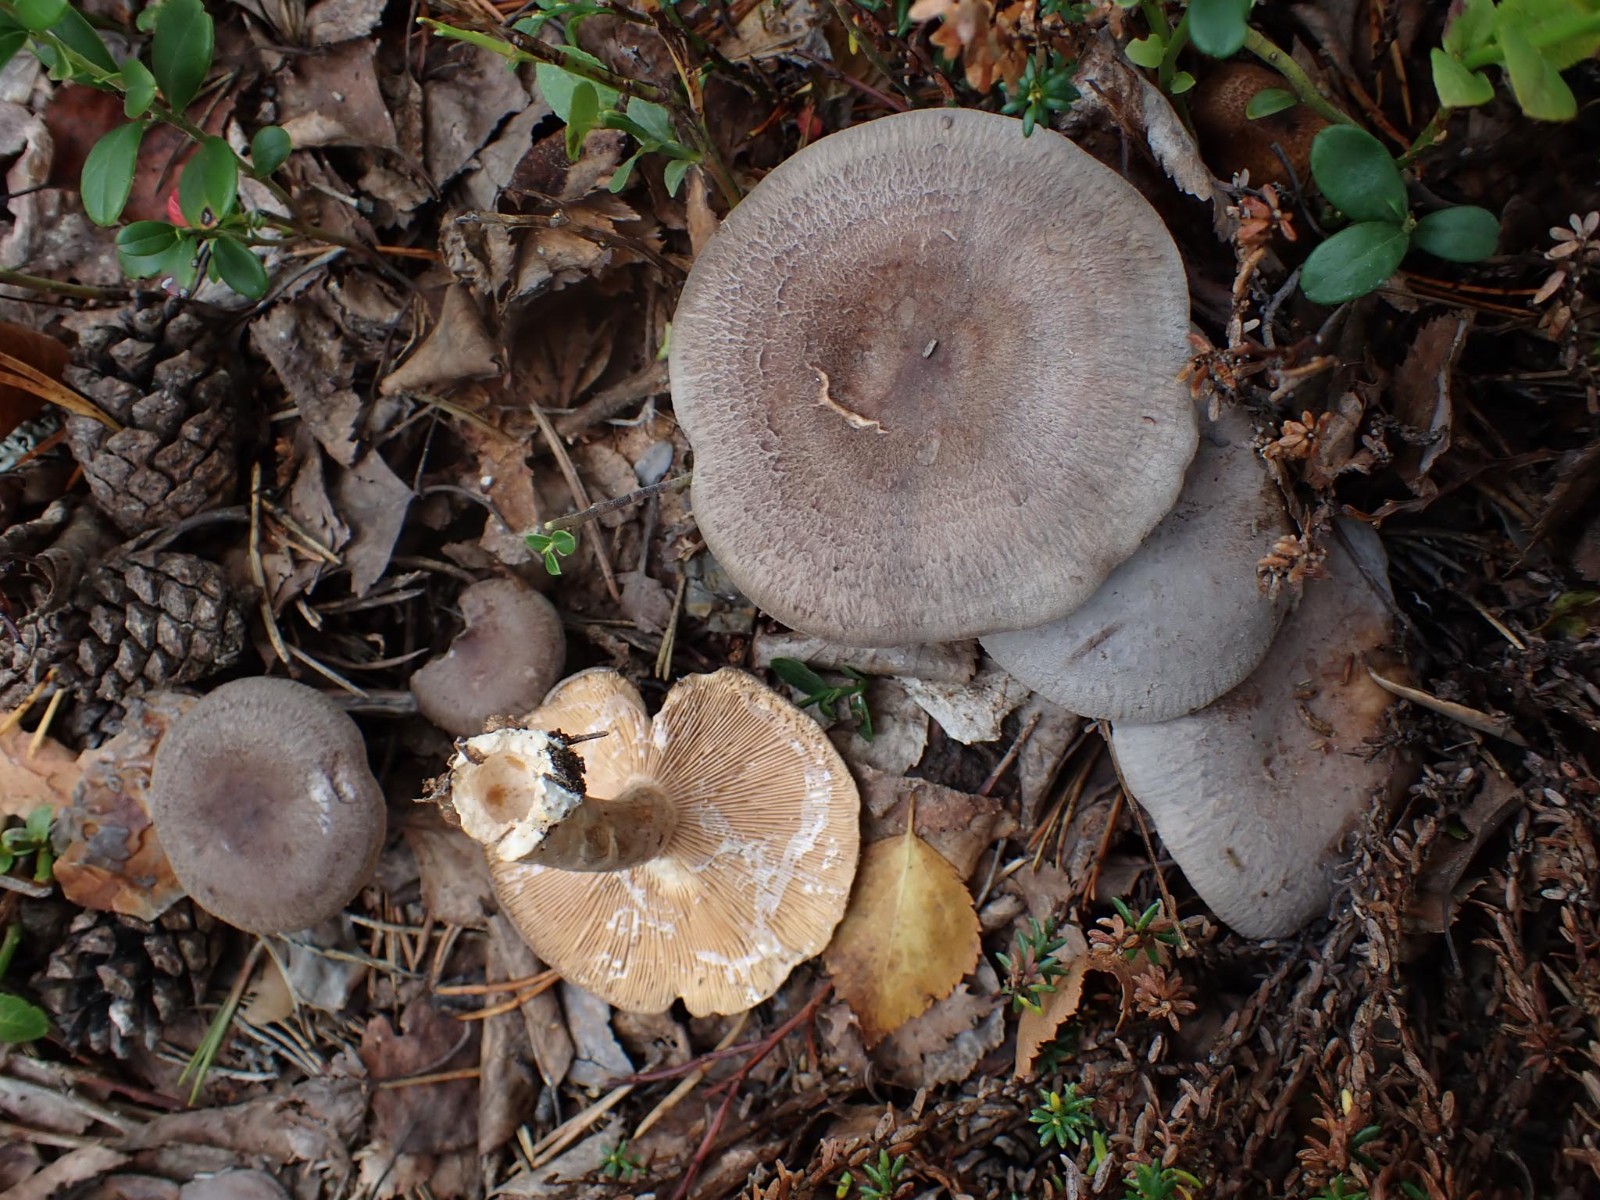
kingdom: Fungi
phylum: Basidiomycota
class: Agaricomycetes
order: Russulales
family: Russulaceae
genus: Lactarius
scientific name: Lactarius mammosus
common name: kokosbrun mælkehat
